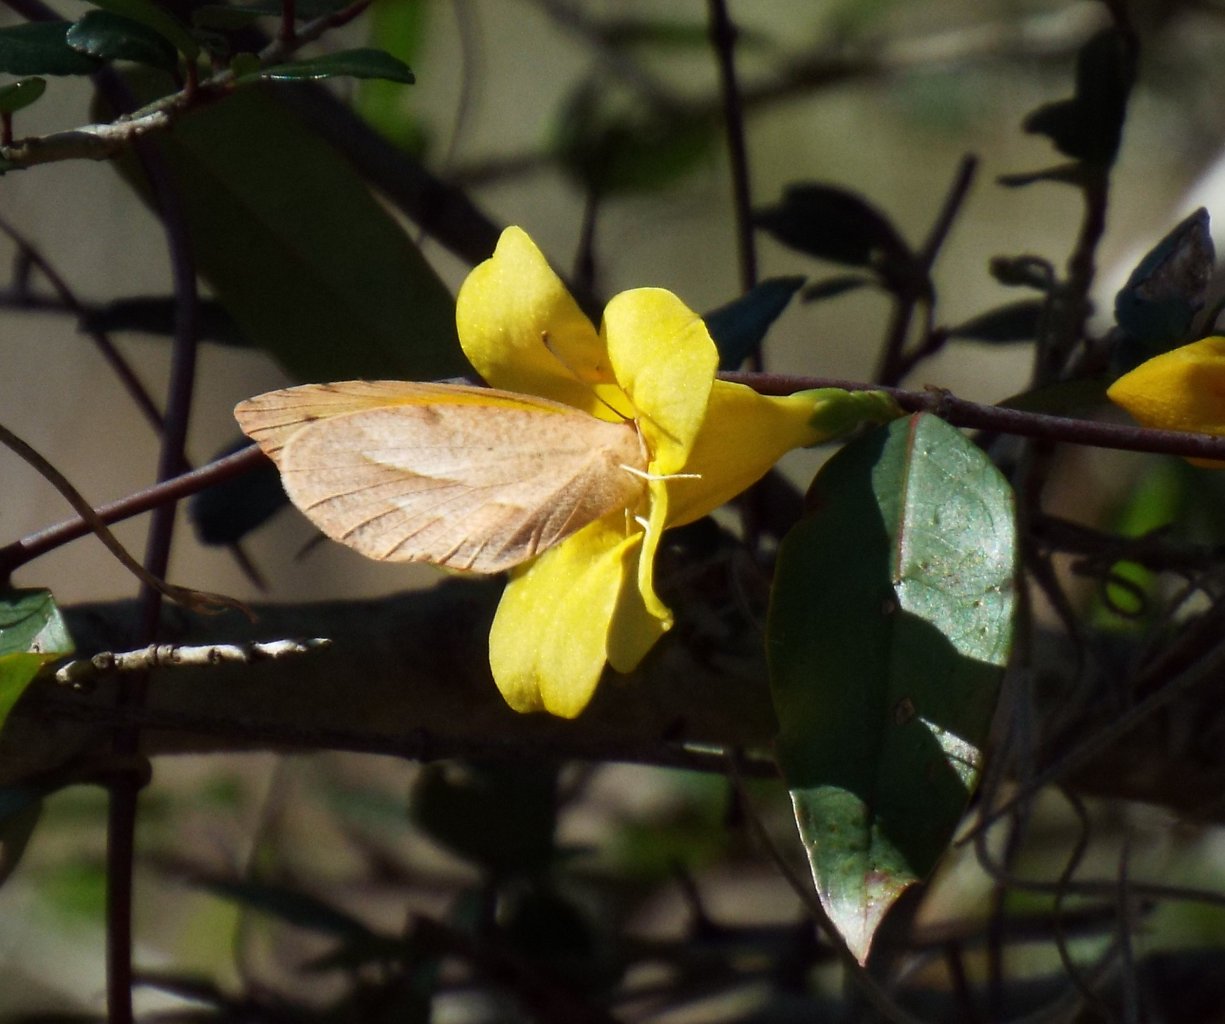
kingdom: Animalia
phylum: Arthropoda
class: Insecta
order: Lepidoptera
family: Pieridae
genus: Abaeis
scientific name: Abaeis nicippe
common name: Sleepy Orange
